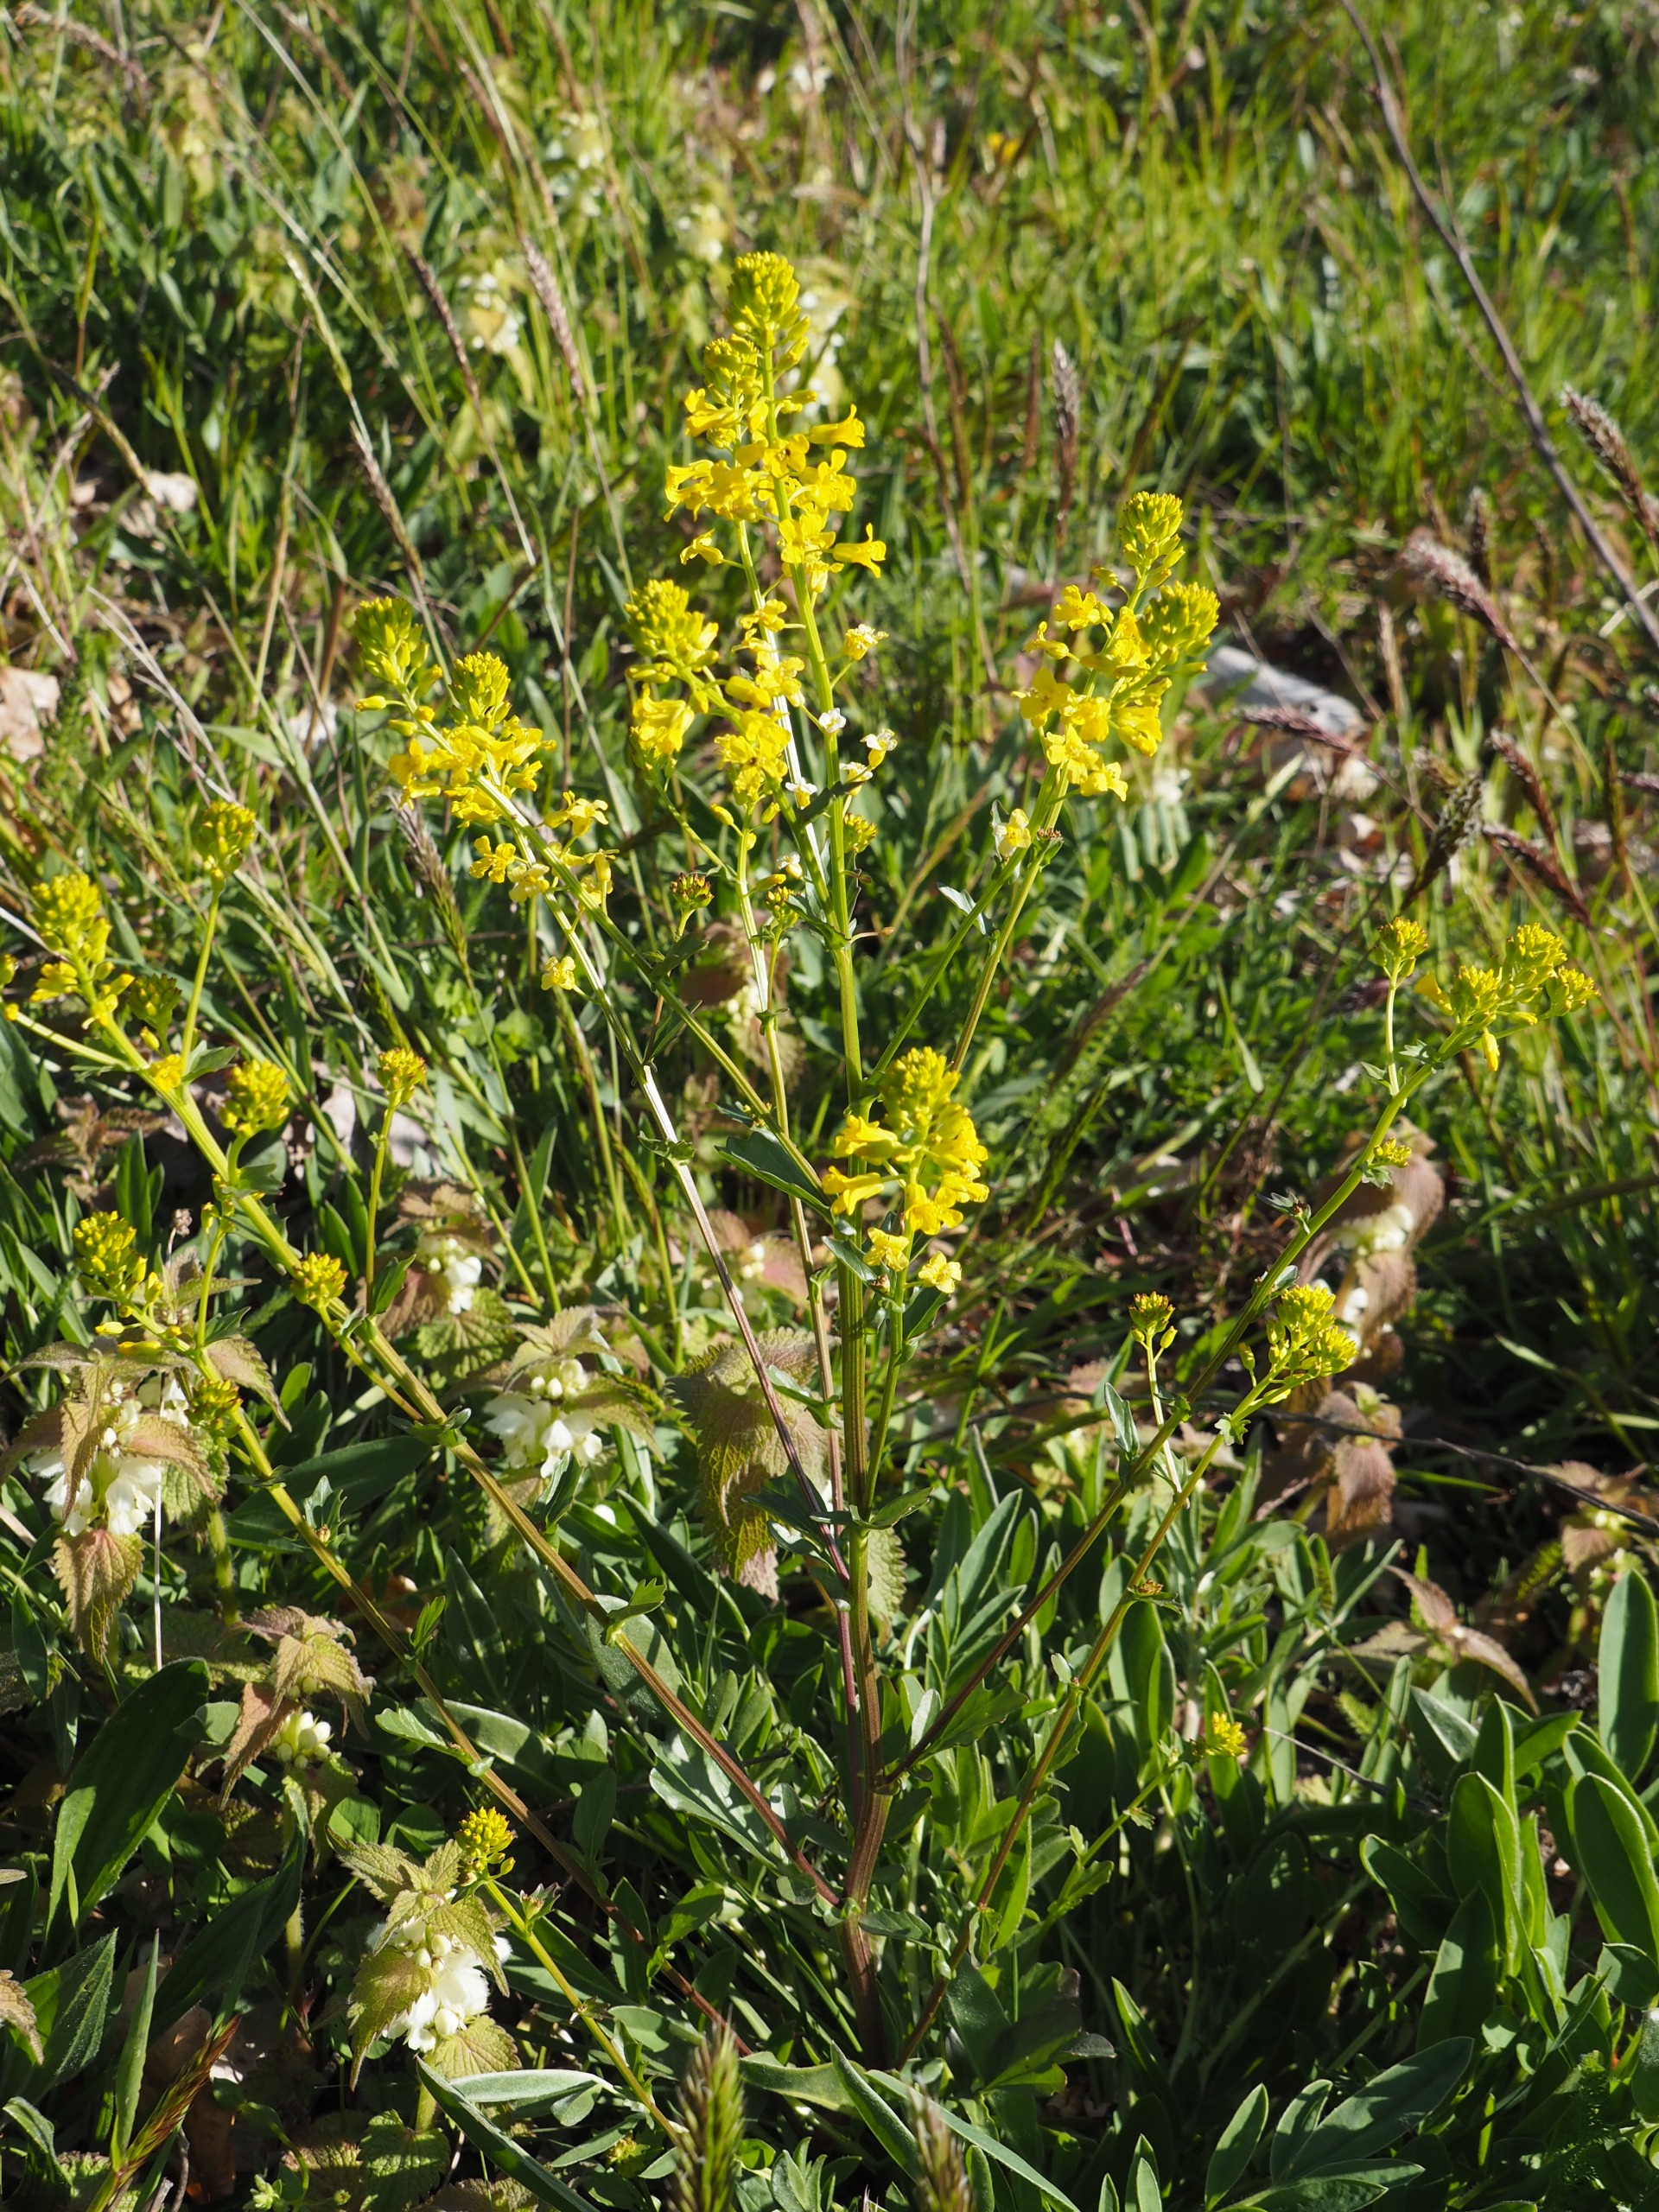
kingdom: Plantae
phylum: Tracheophyta
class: Magnoliopsida
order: Brassicales
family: Brassicaceae
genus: Barbarea
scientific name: Barbarea vulgaris
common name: Almindelig vinterkarse
